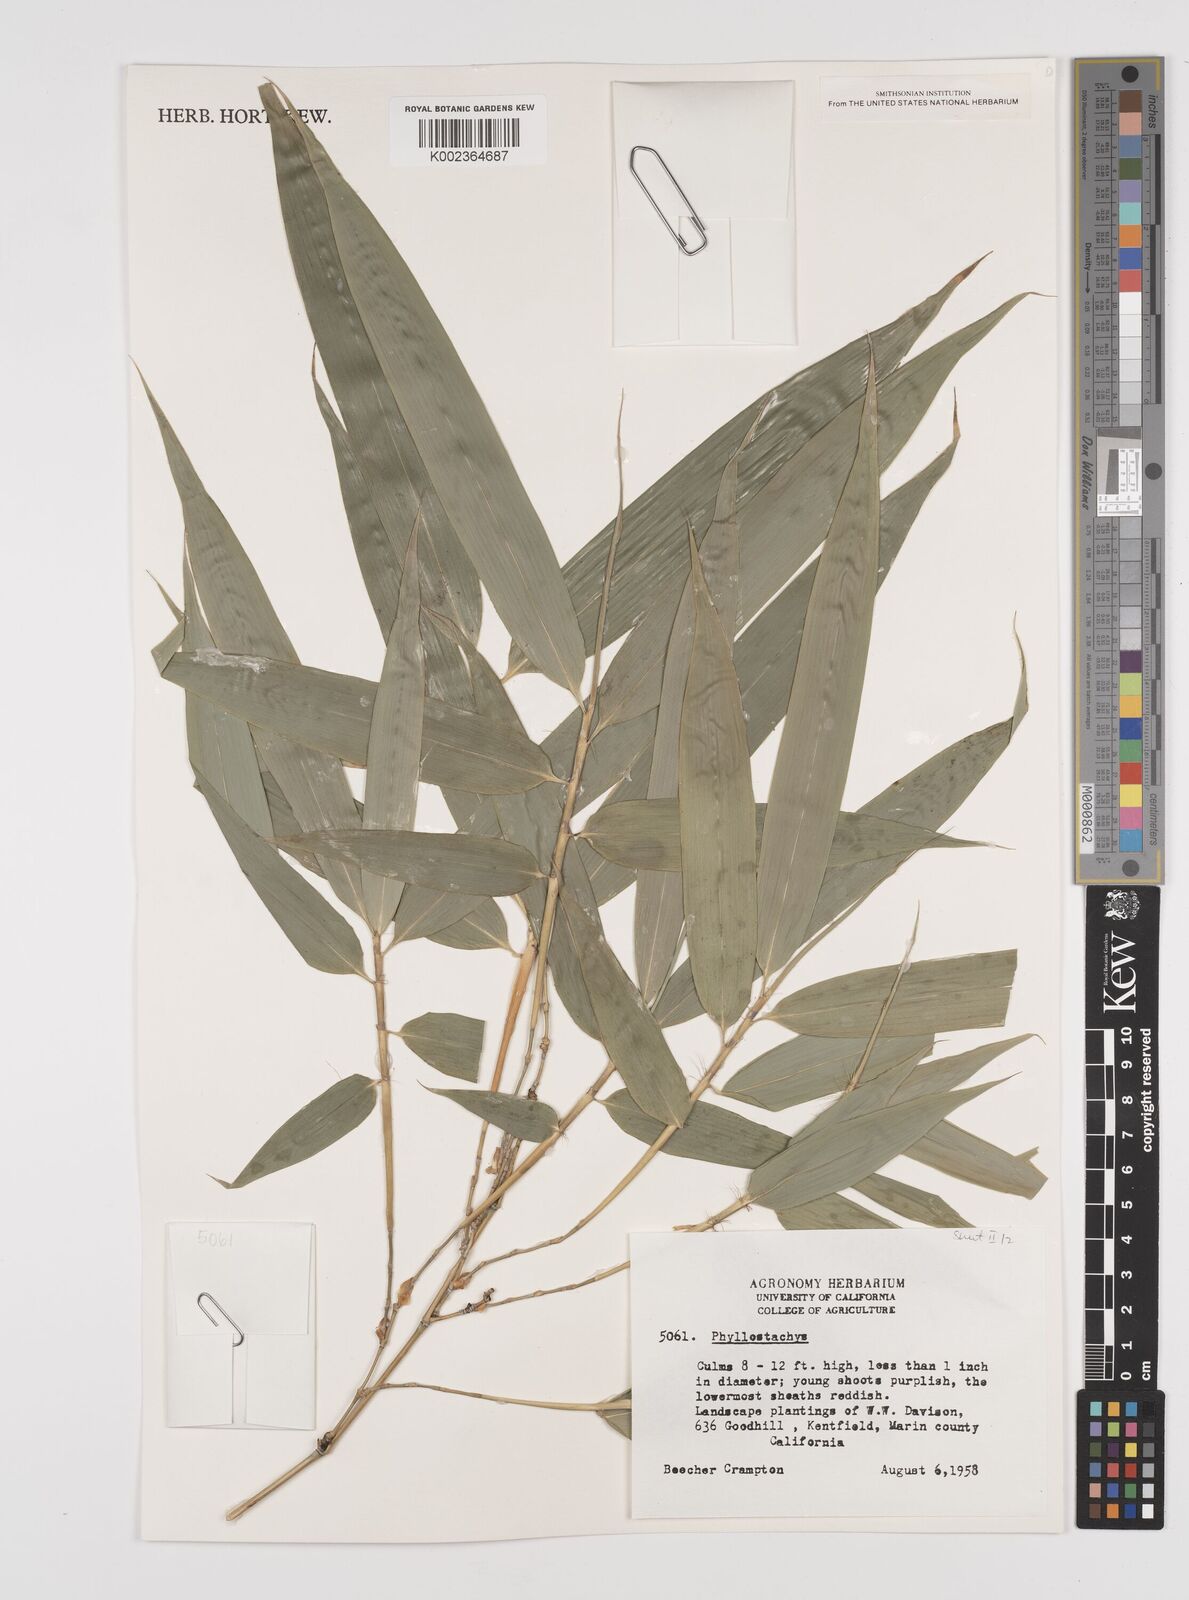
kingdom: Plantae
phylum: Tracheophyta
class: Liliopsida
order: Poales
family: Poaceae
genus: Phyllostachys
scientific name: Phyllostachys
